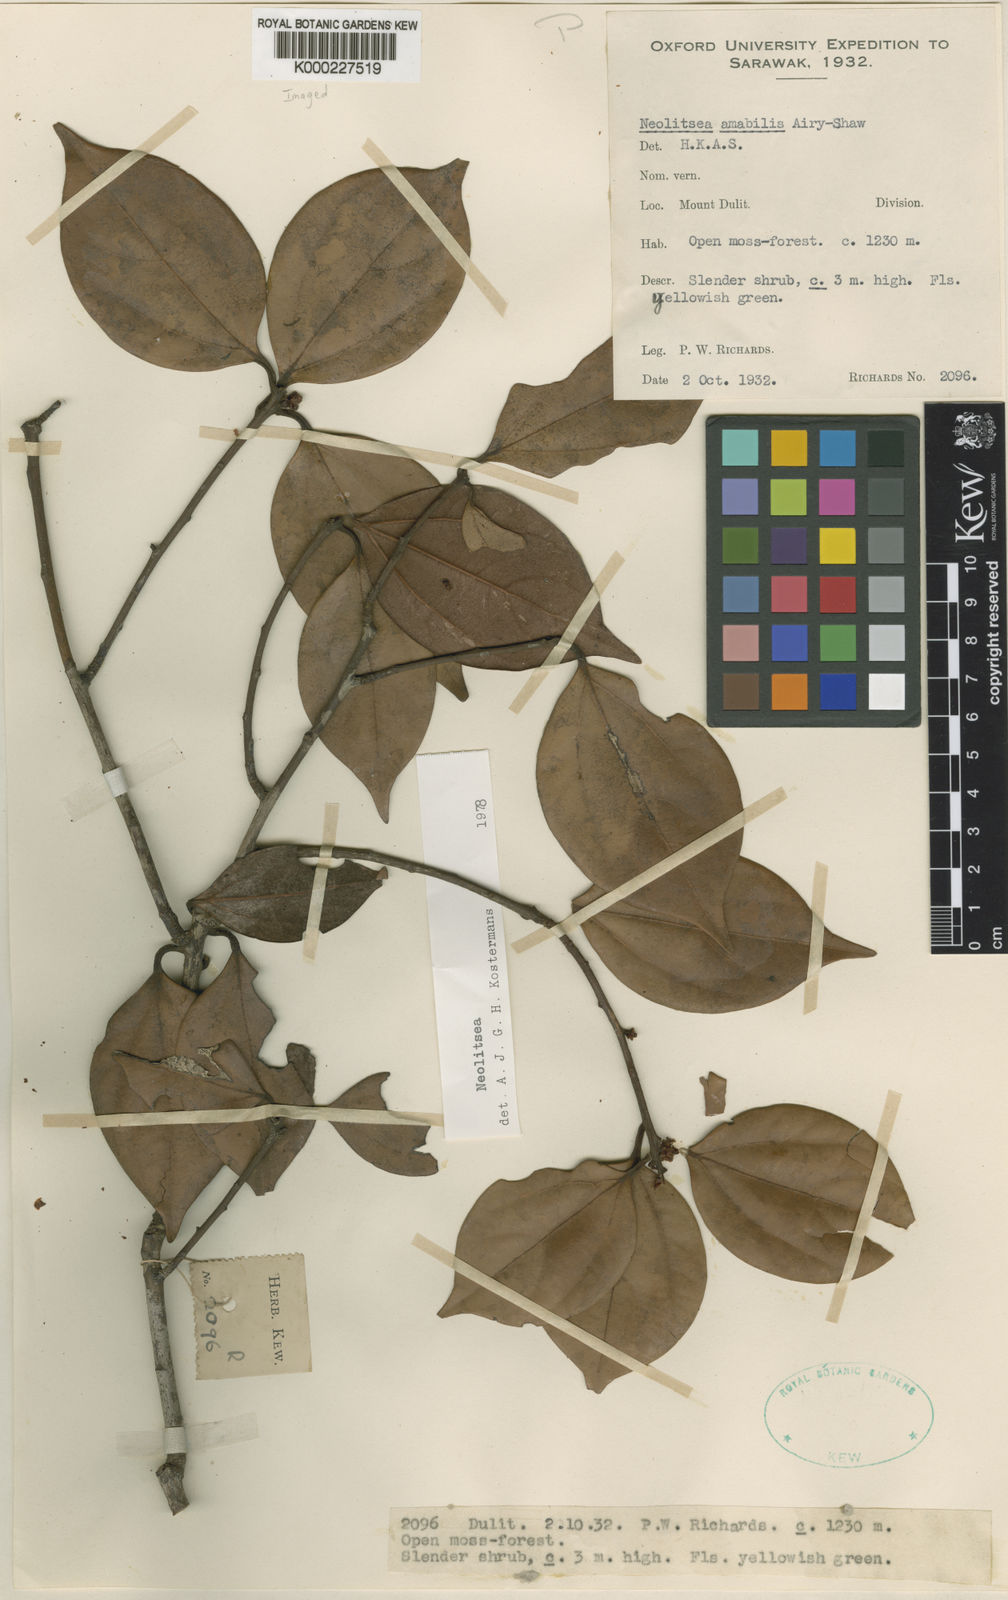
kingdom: Plantae
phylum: Tracheophyta
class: Magnoliopsida
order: Laurales
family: Lauraceae
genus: Neolitsea
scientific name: Neolitsea amabilis
